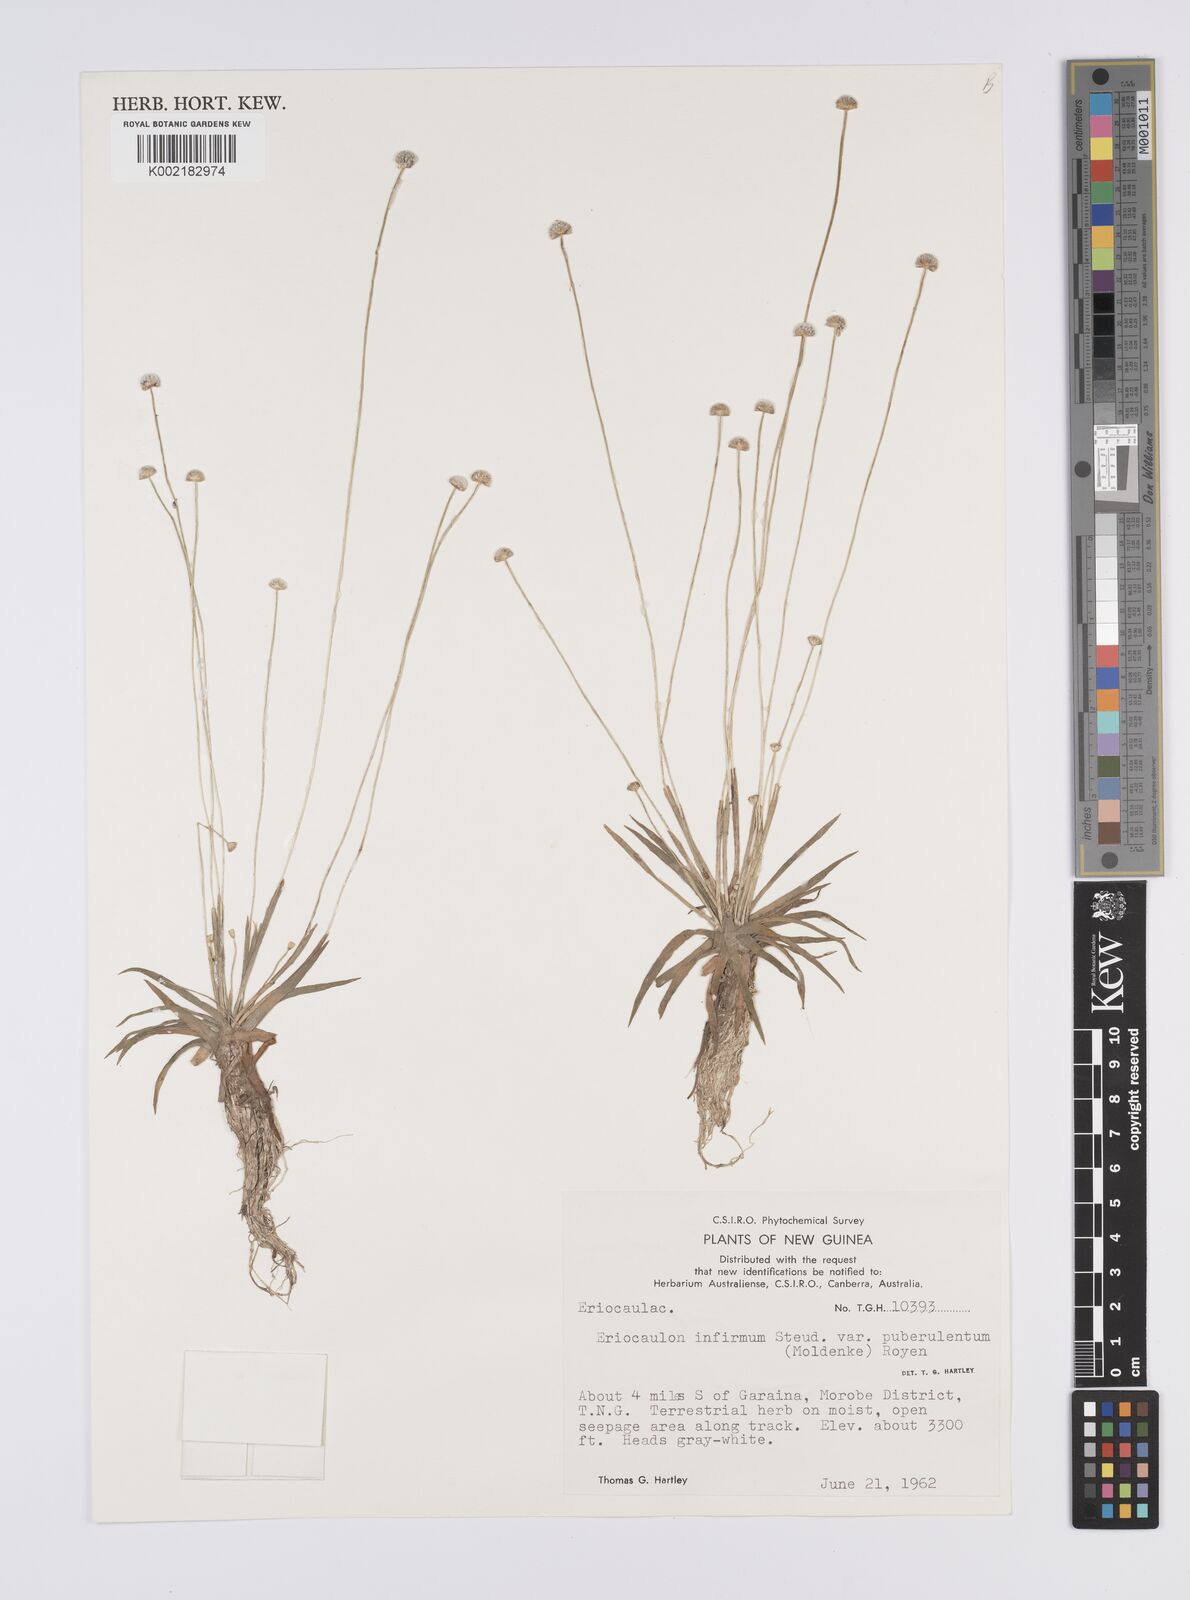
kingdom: Plantae
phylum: Tracheophyta
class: Liliopsida
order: Poales
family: Eriocaulaceae
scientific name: Eriocaulaceae
